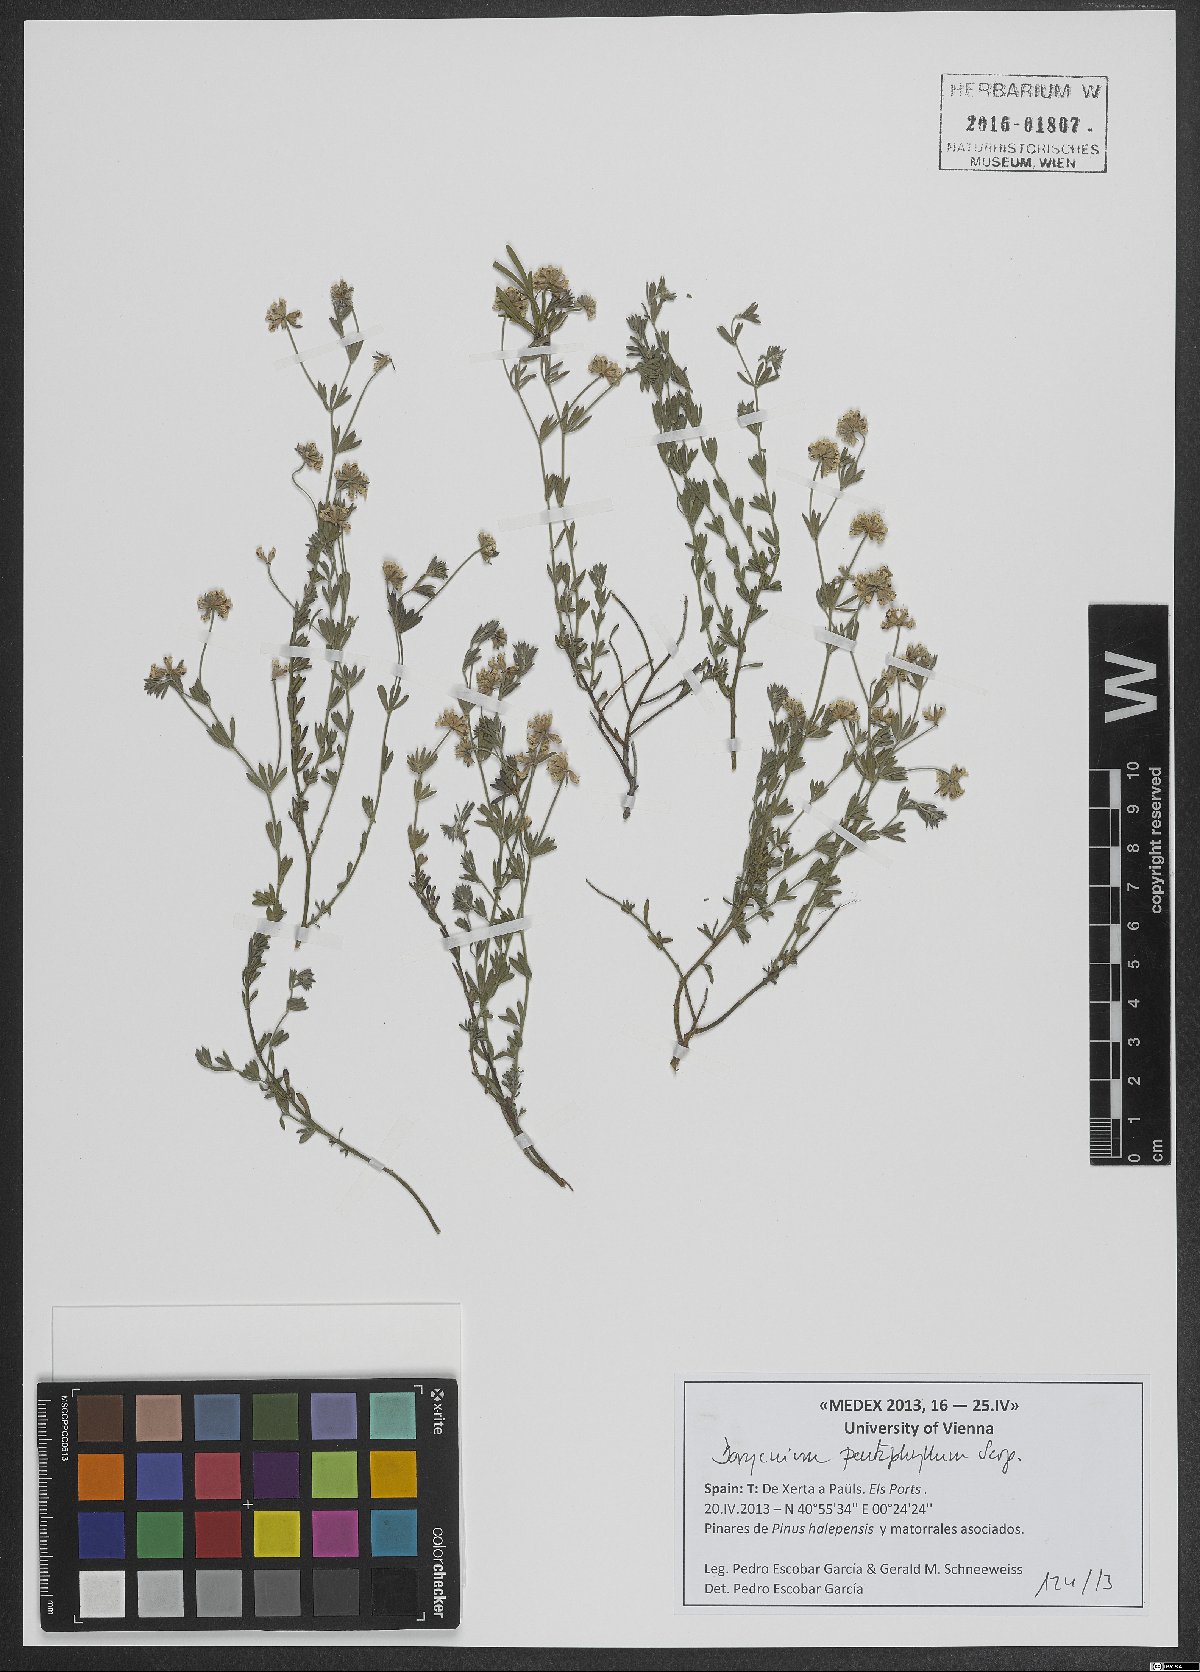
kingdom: Plantae
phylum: Tracheophyta
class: Magnoliopsida
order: Fabales
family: Fabaceae
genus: Lotus
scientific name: Lotus dorycnium
